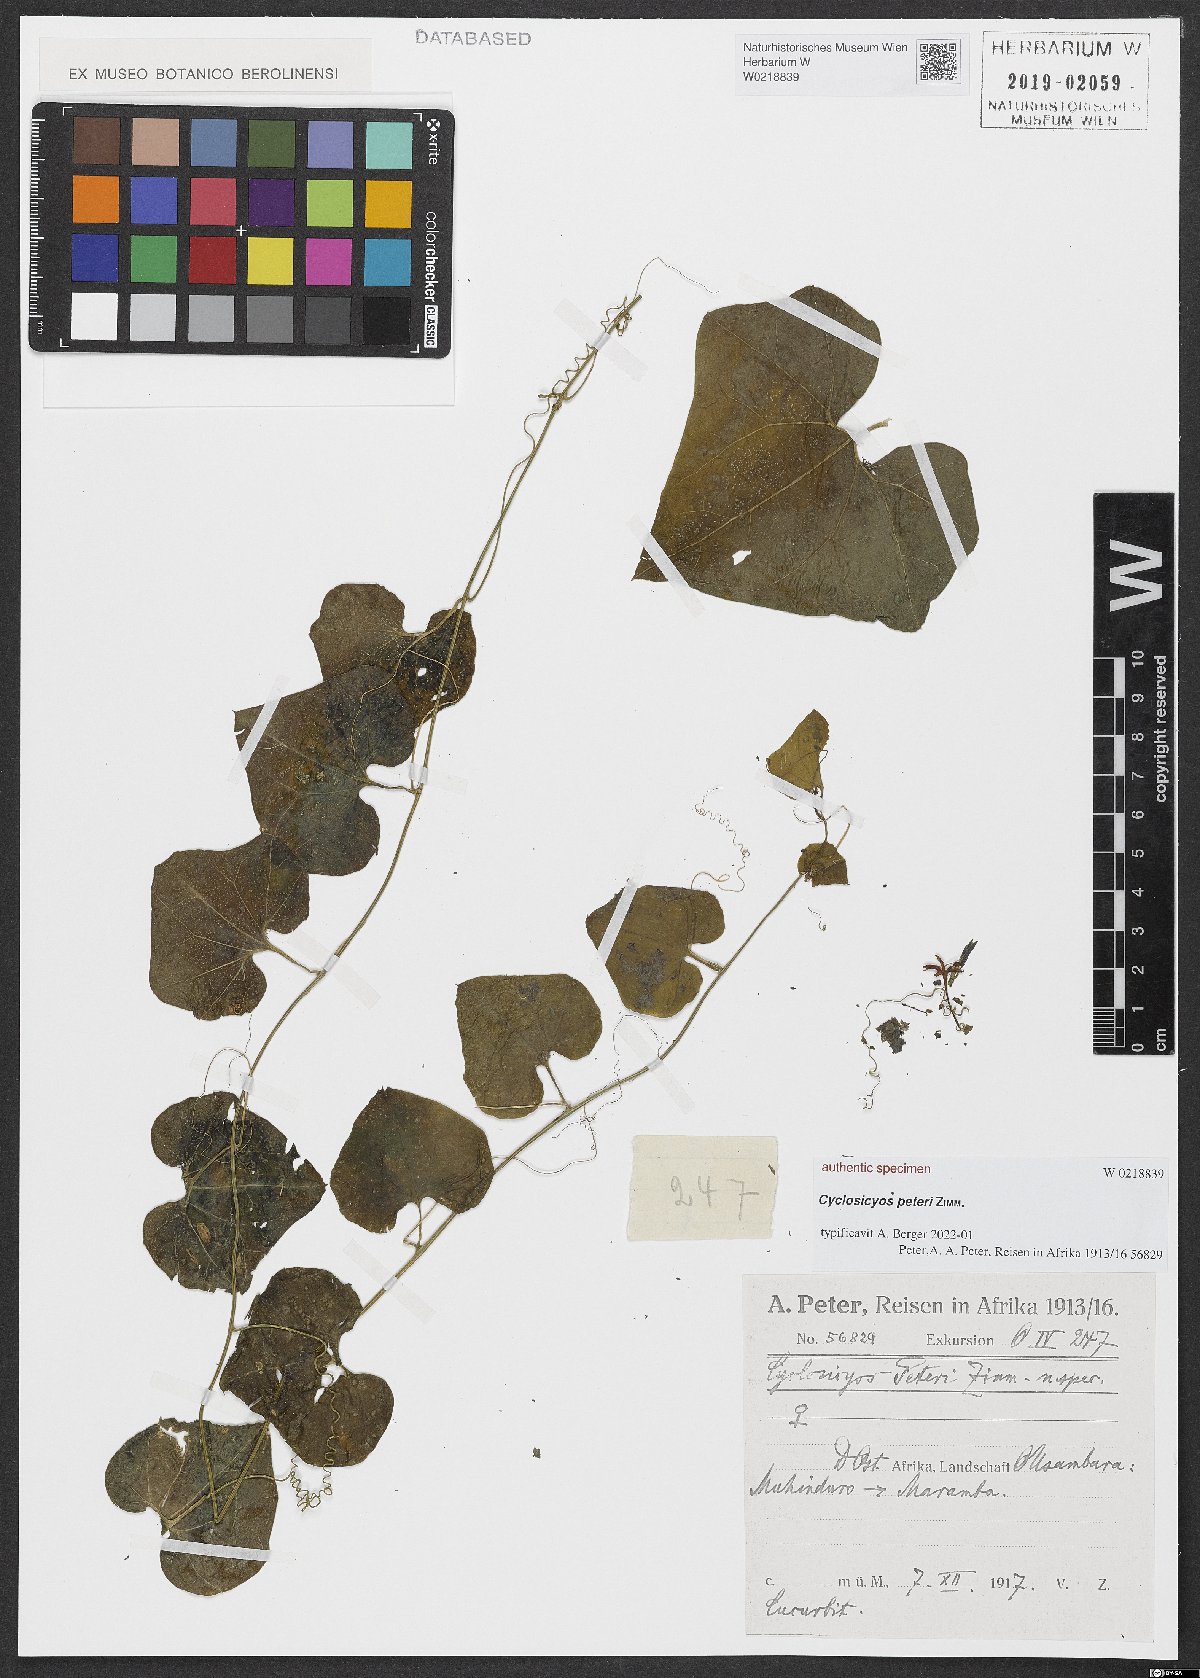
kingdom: Plantae
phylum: Tracheophyta
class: Magnoliopsida
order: Cucurbitales
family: Cucurbitaceae
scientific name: Cucurbitaceae
